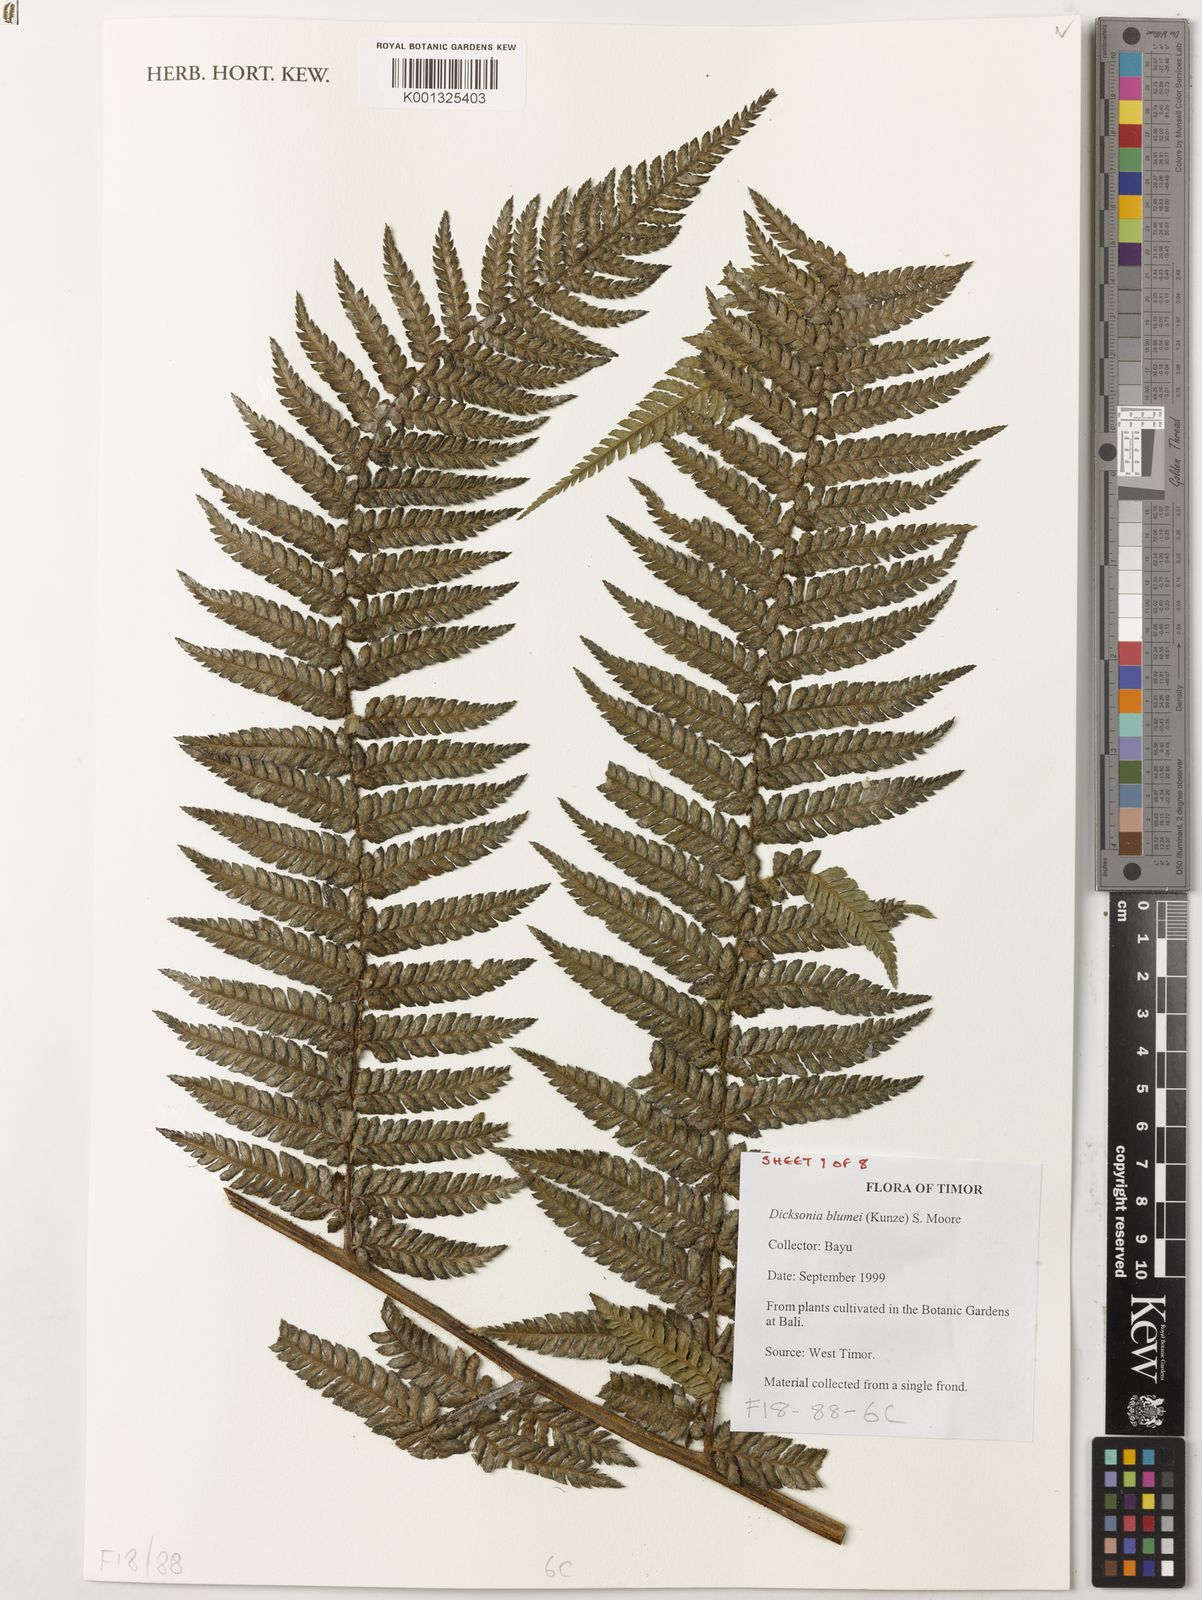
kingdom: Plantae
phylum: Tracheophyta
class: Polypodiopsida
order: Cyatheales
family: Dicksoniaceae
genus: Dicksonia
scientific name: Dicksonia
